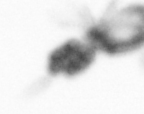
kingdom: Animalia
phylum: Arthropoda
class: Copepoda
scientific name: Copepoda
